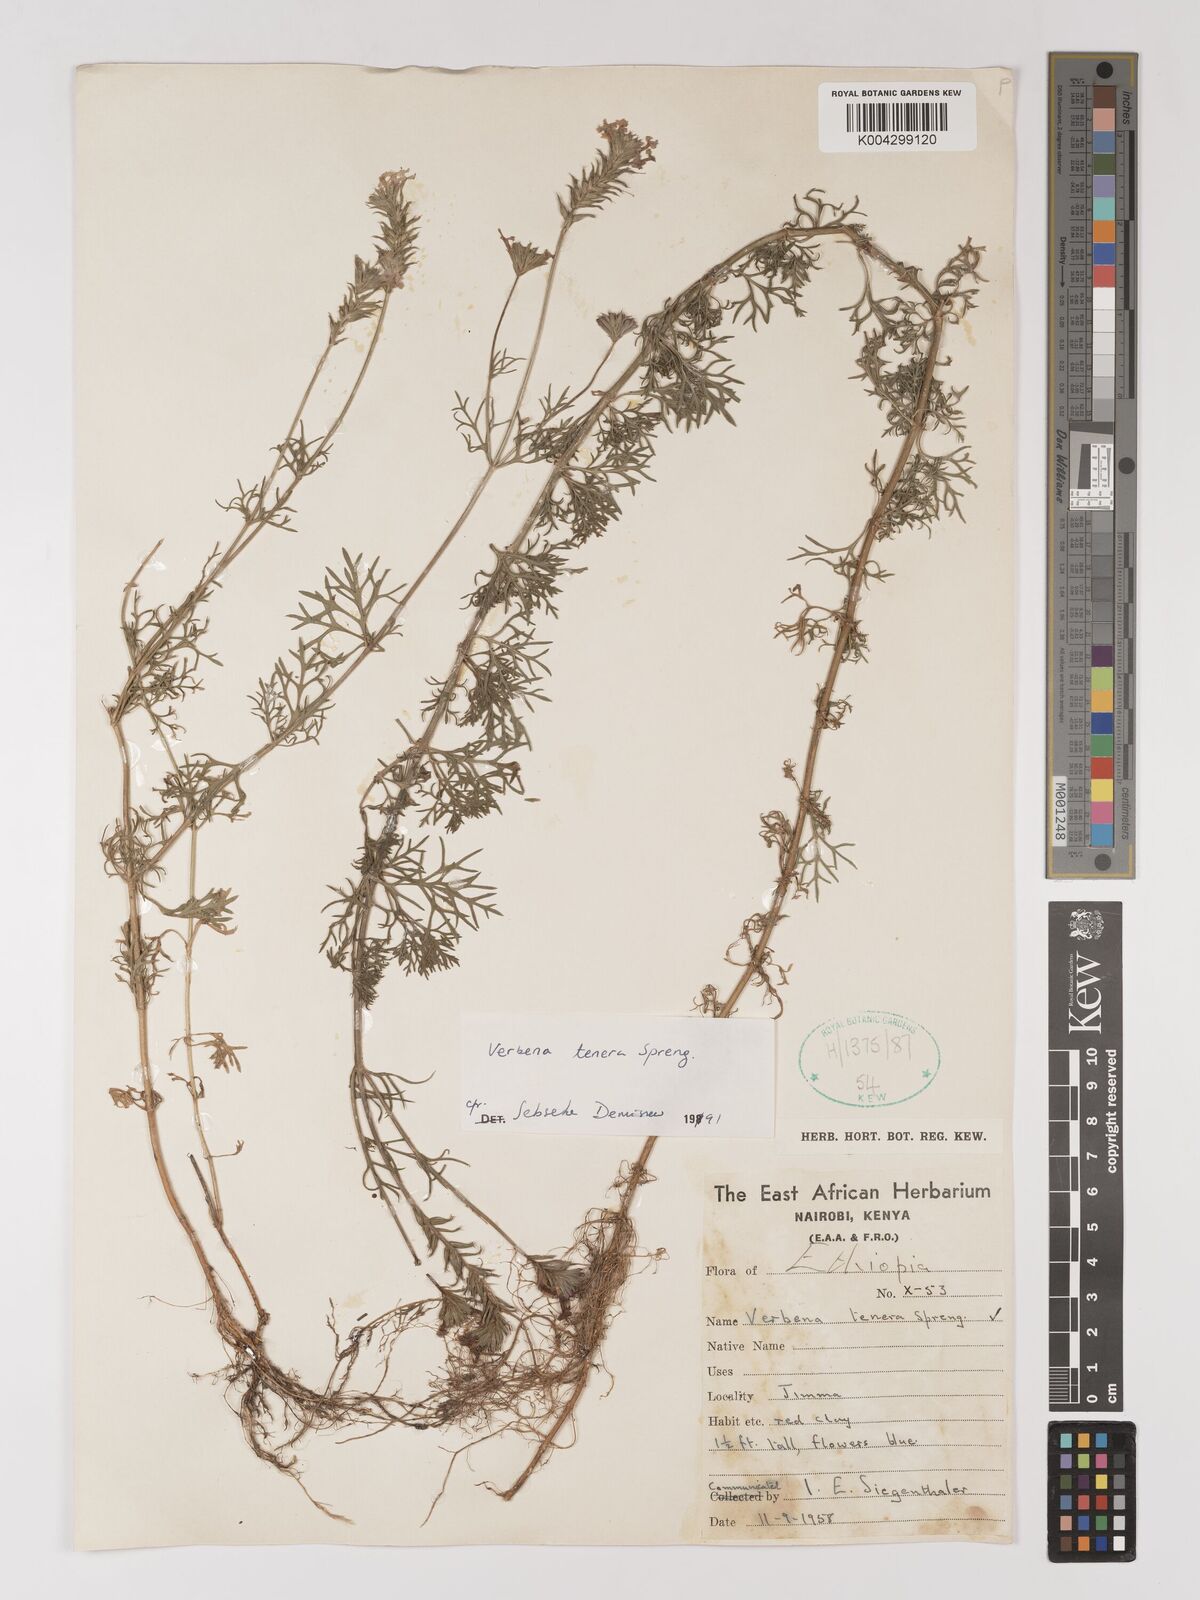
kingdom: Plantae
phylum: Tracheophyta
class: Magnoliopsida
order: Lamiales
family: Verbenaceae
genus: Verbena
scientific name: Verbena tenera
